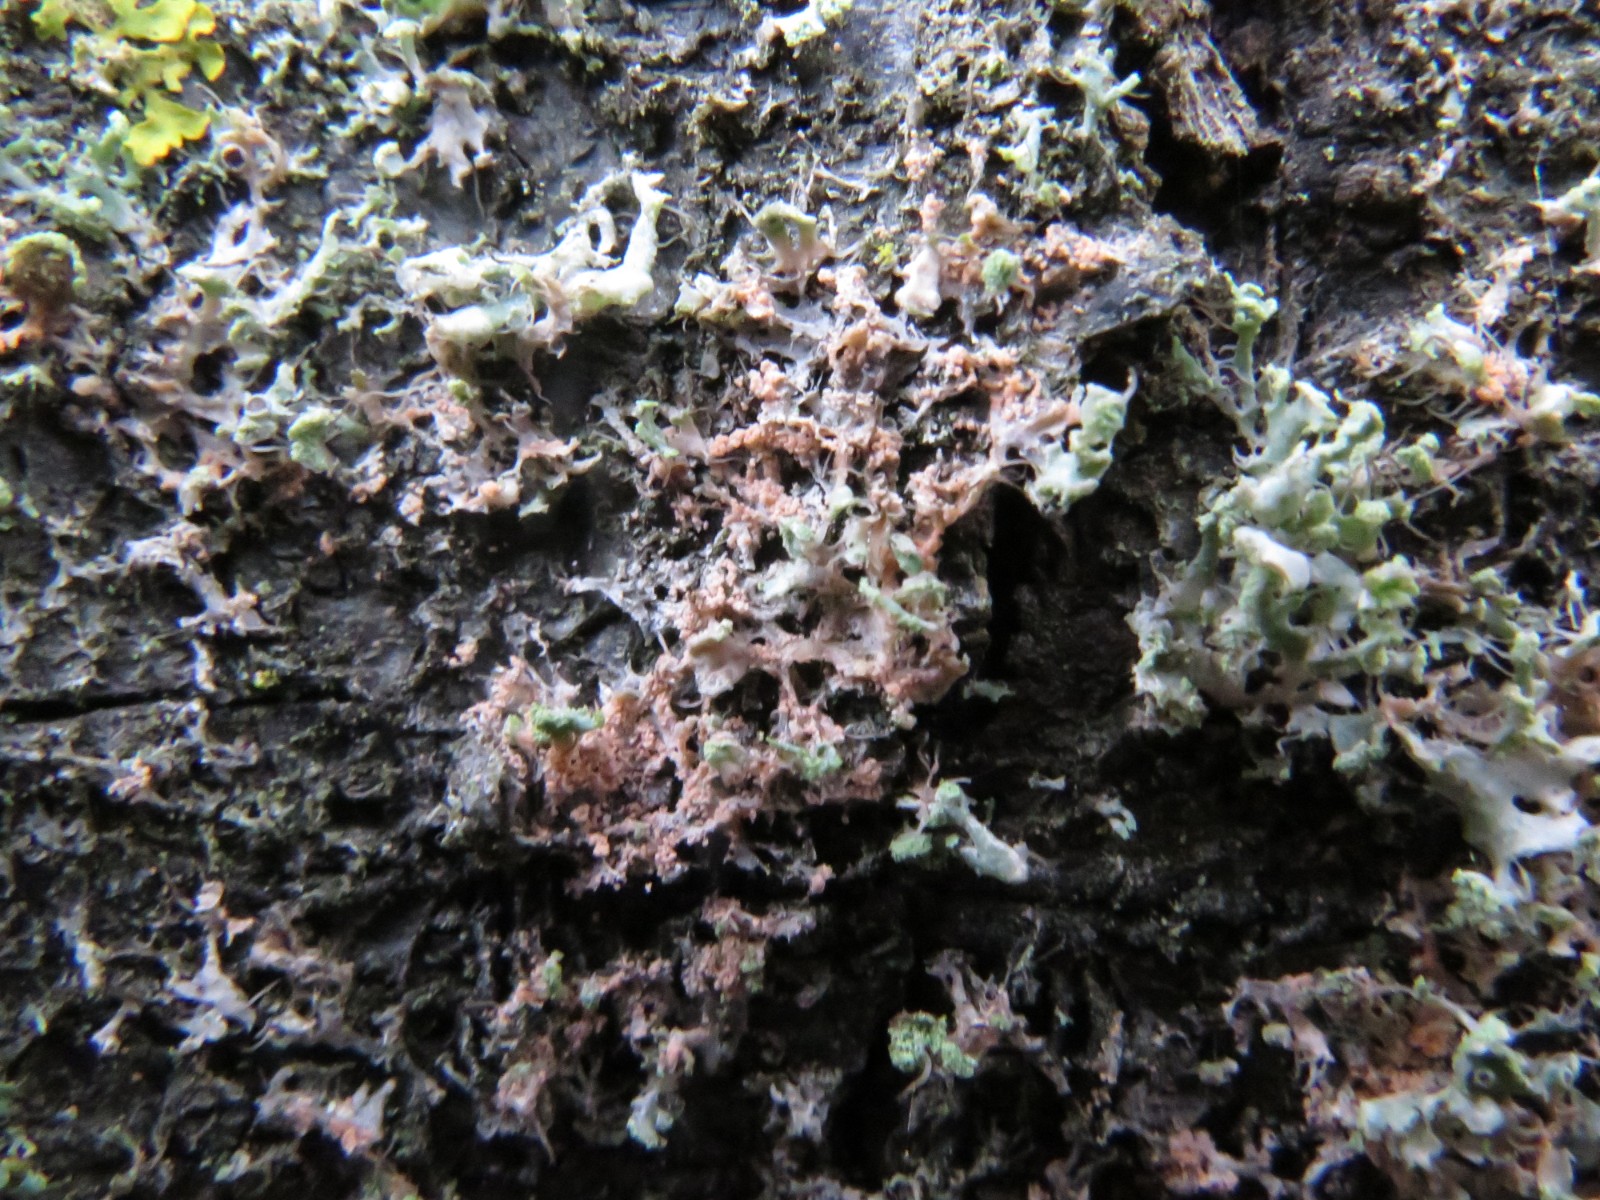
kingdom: Fungi
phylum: Basidiomycota
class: Agaricomycetes
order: Corticiales
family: Corticiaceae
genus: Erythricium
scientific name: Erythricium aurantiacum
